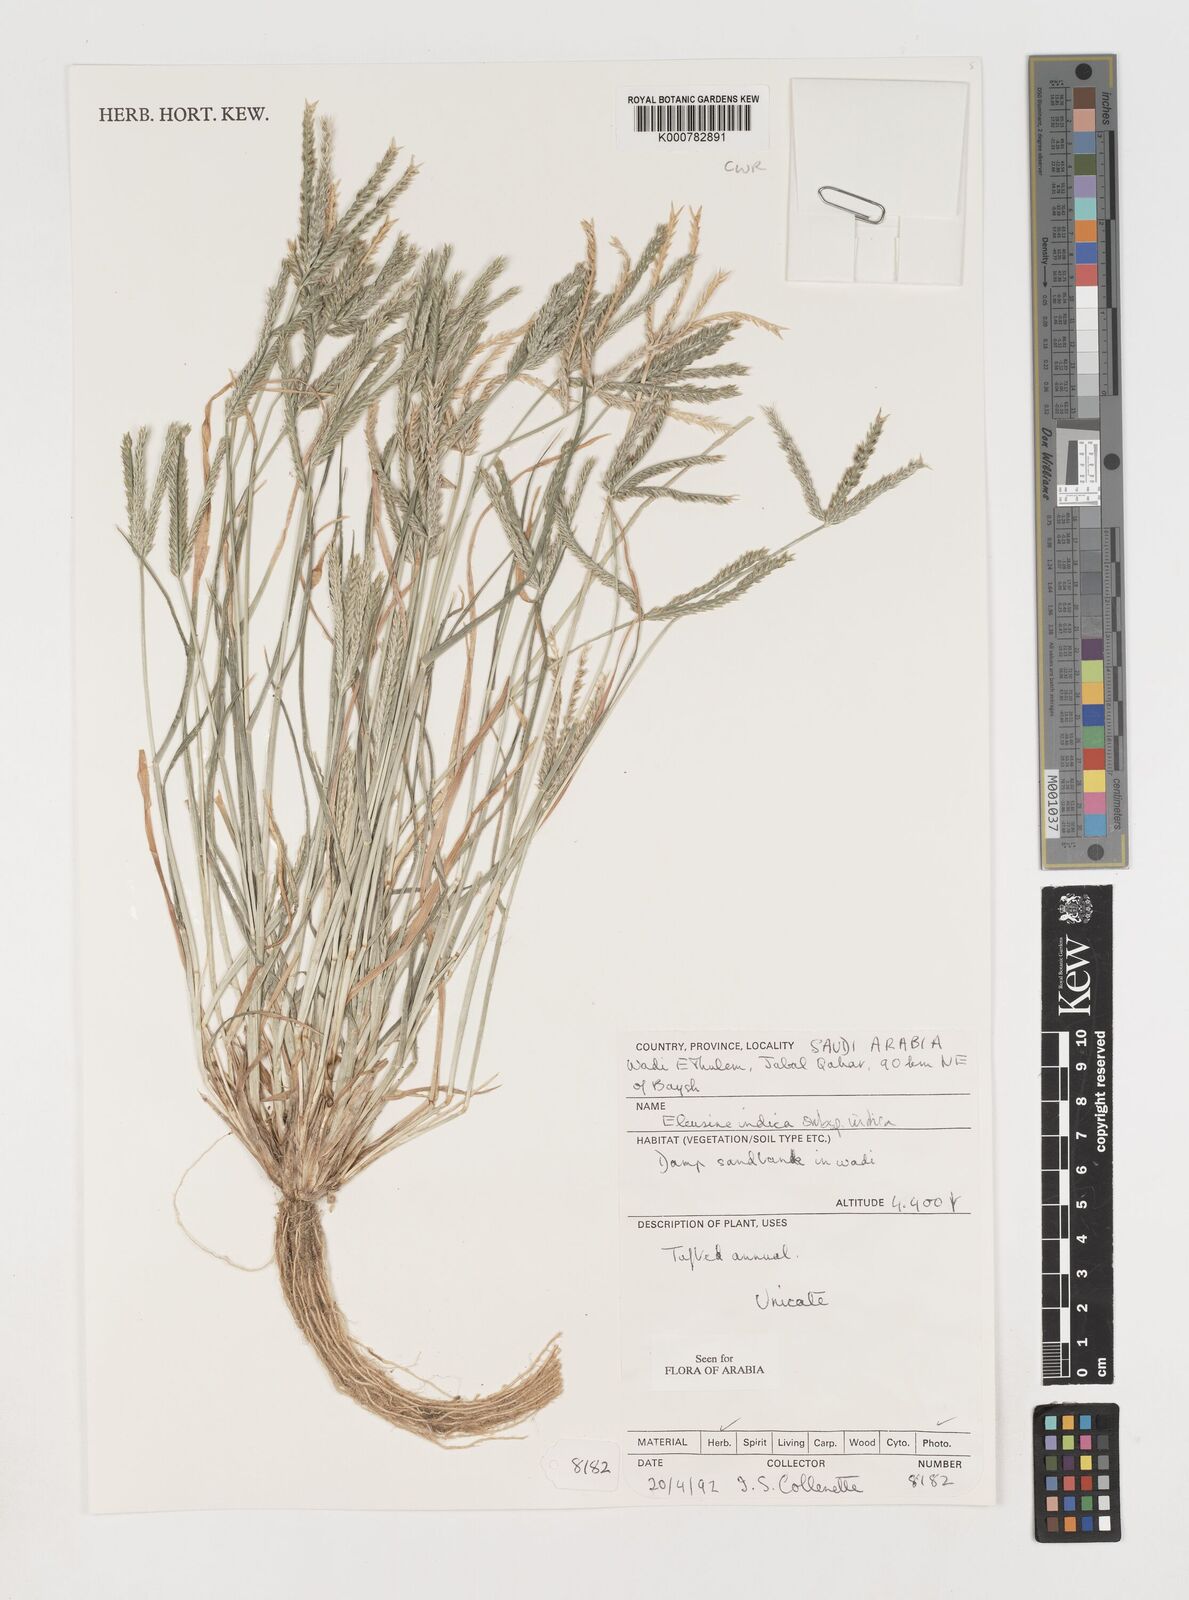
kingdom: Plantae
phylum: Tracheophyta
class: Liliopsida
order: Poales
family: Poaceae
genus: Eleusine
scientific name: Eleusine indica
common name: Yard-grass
